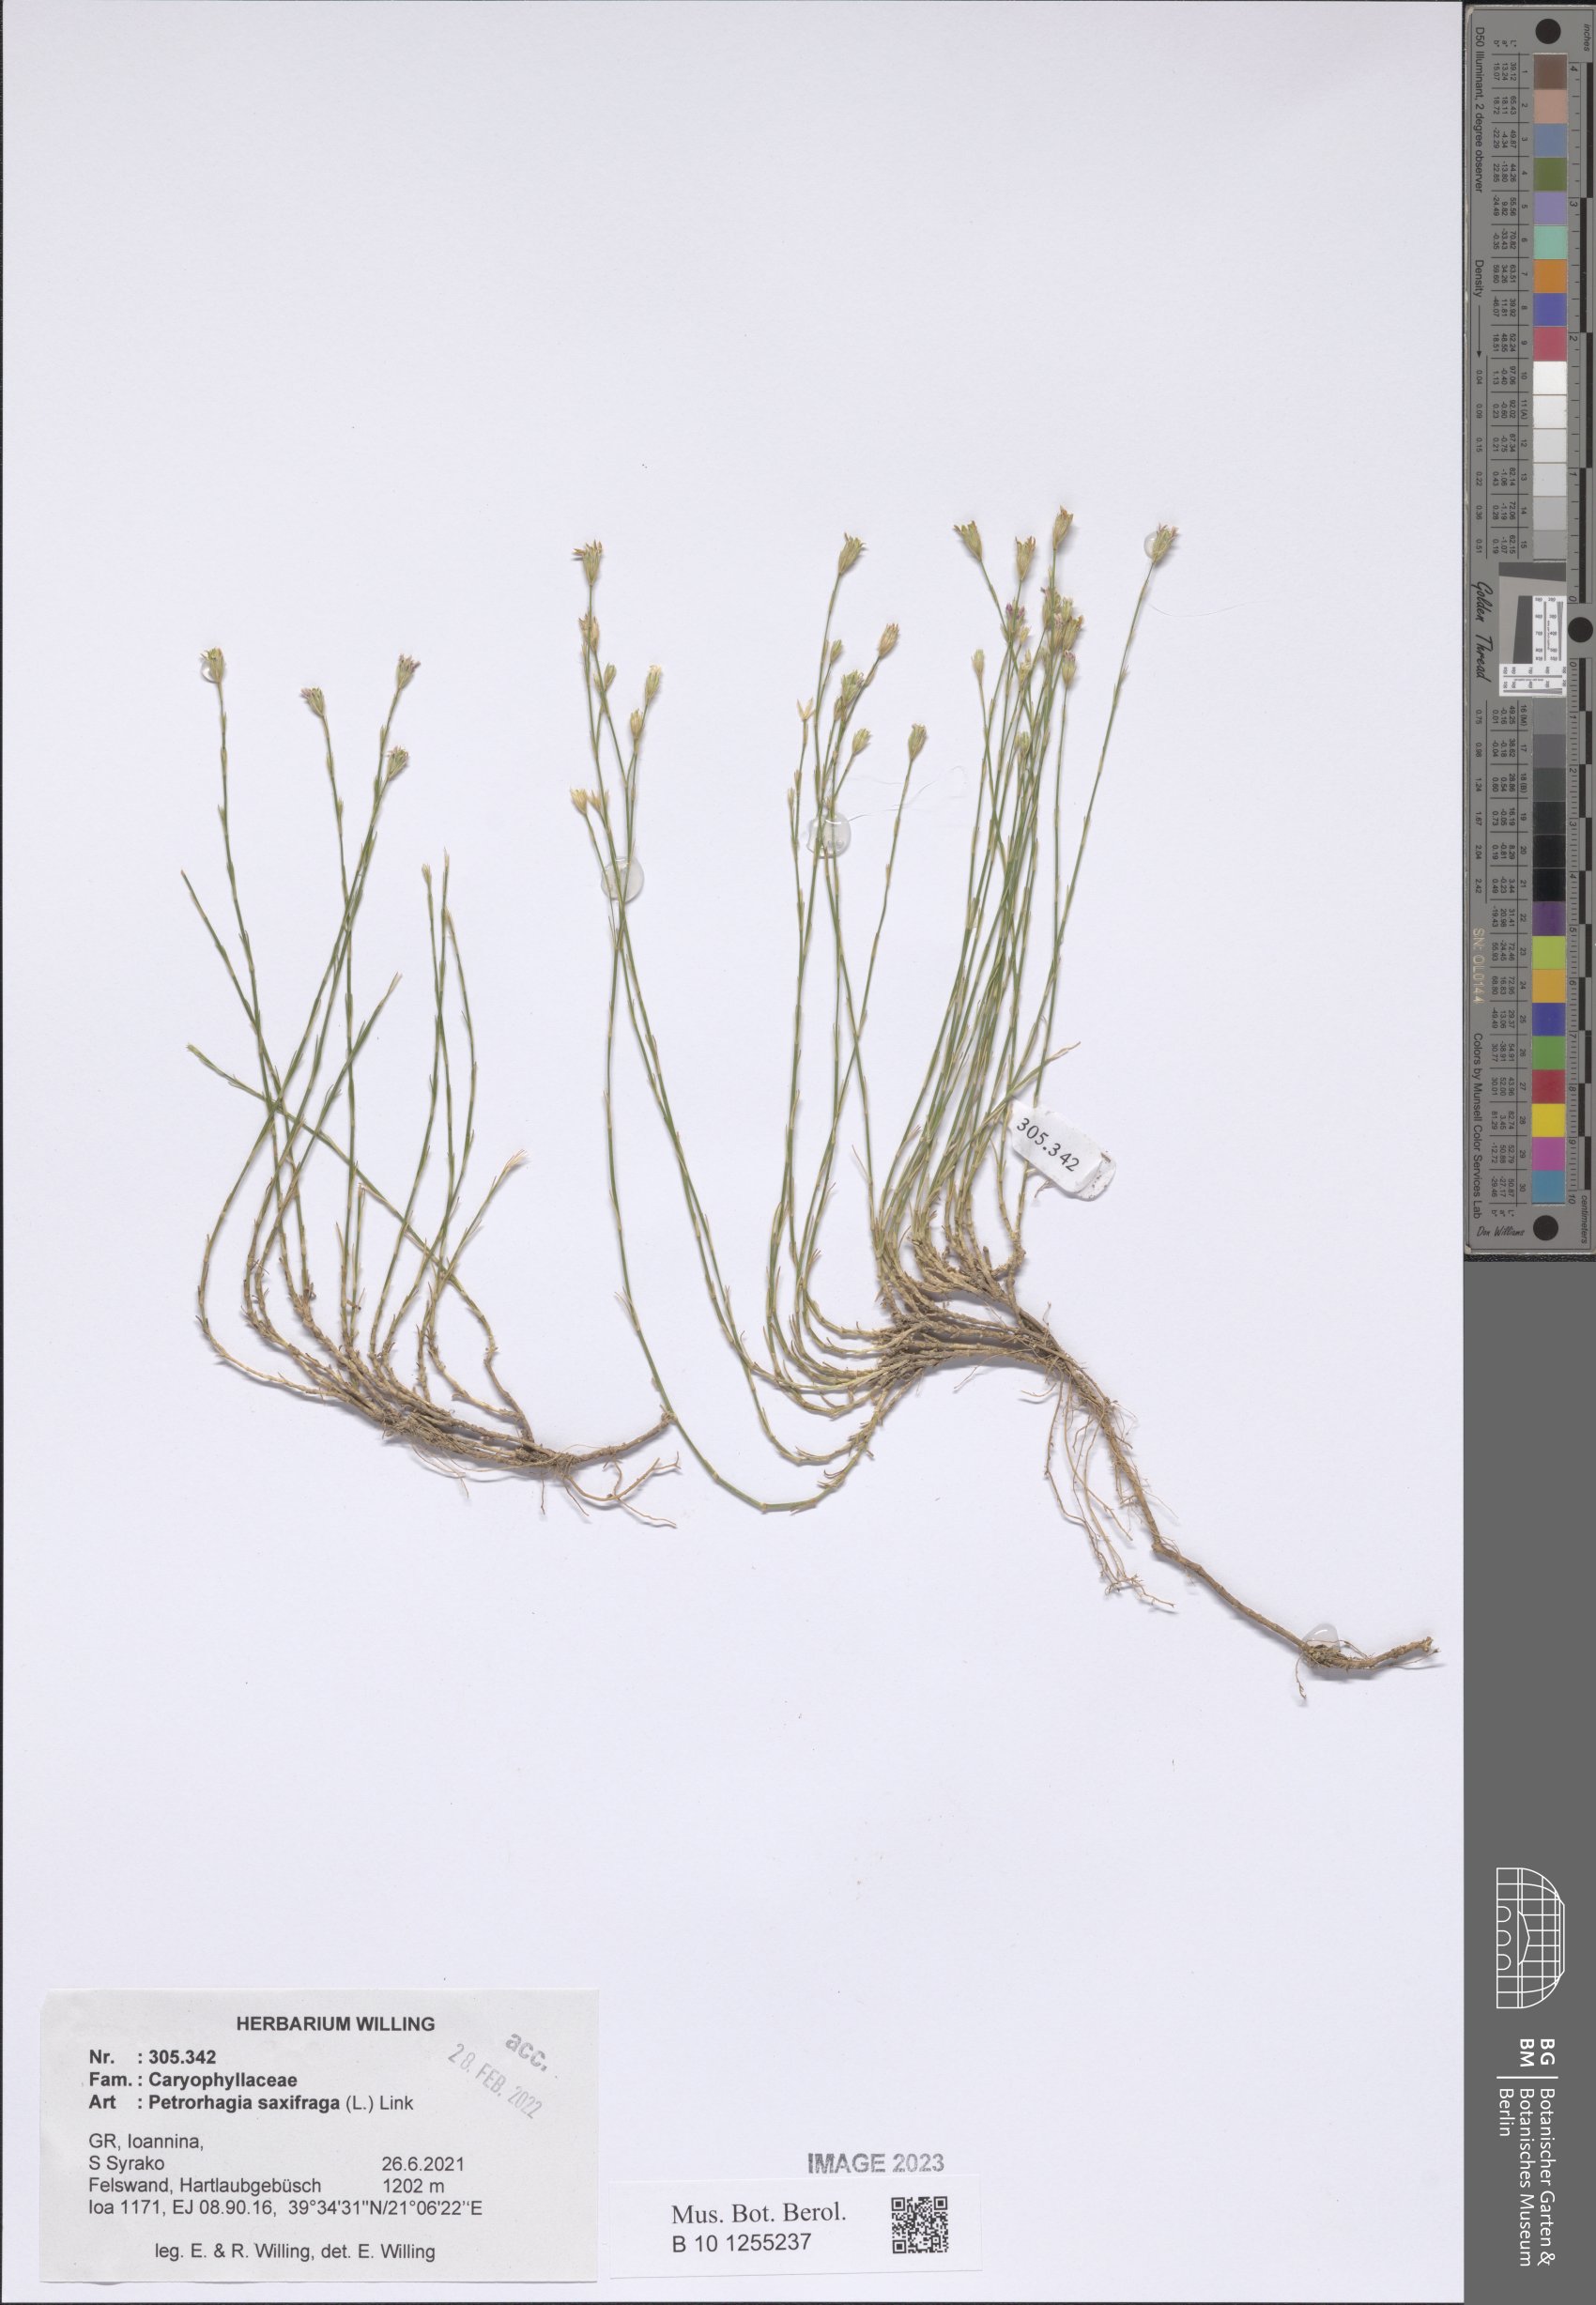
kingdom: Plantae
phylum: Tracheophyta
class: Magnoliopsida
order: Caryophyllales
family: Caryophyllaceae
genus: Petrorhagia
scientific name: Petrorhagia saxifraga
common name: Tunicflower
